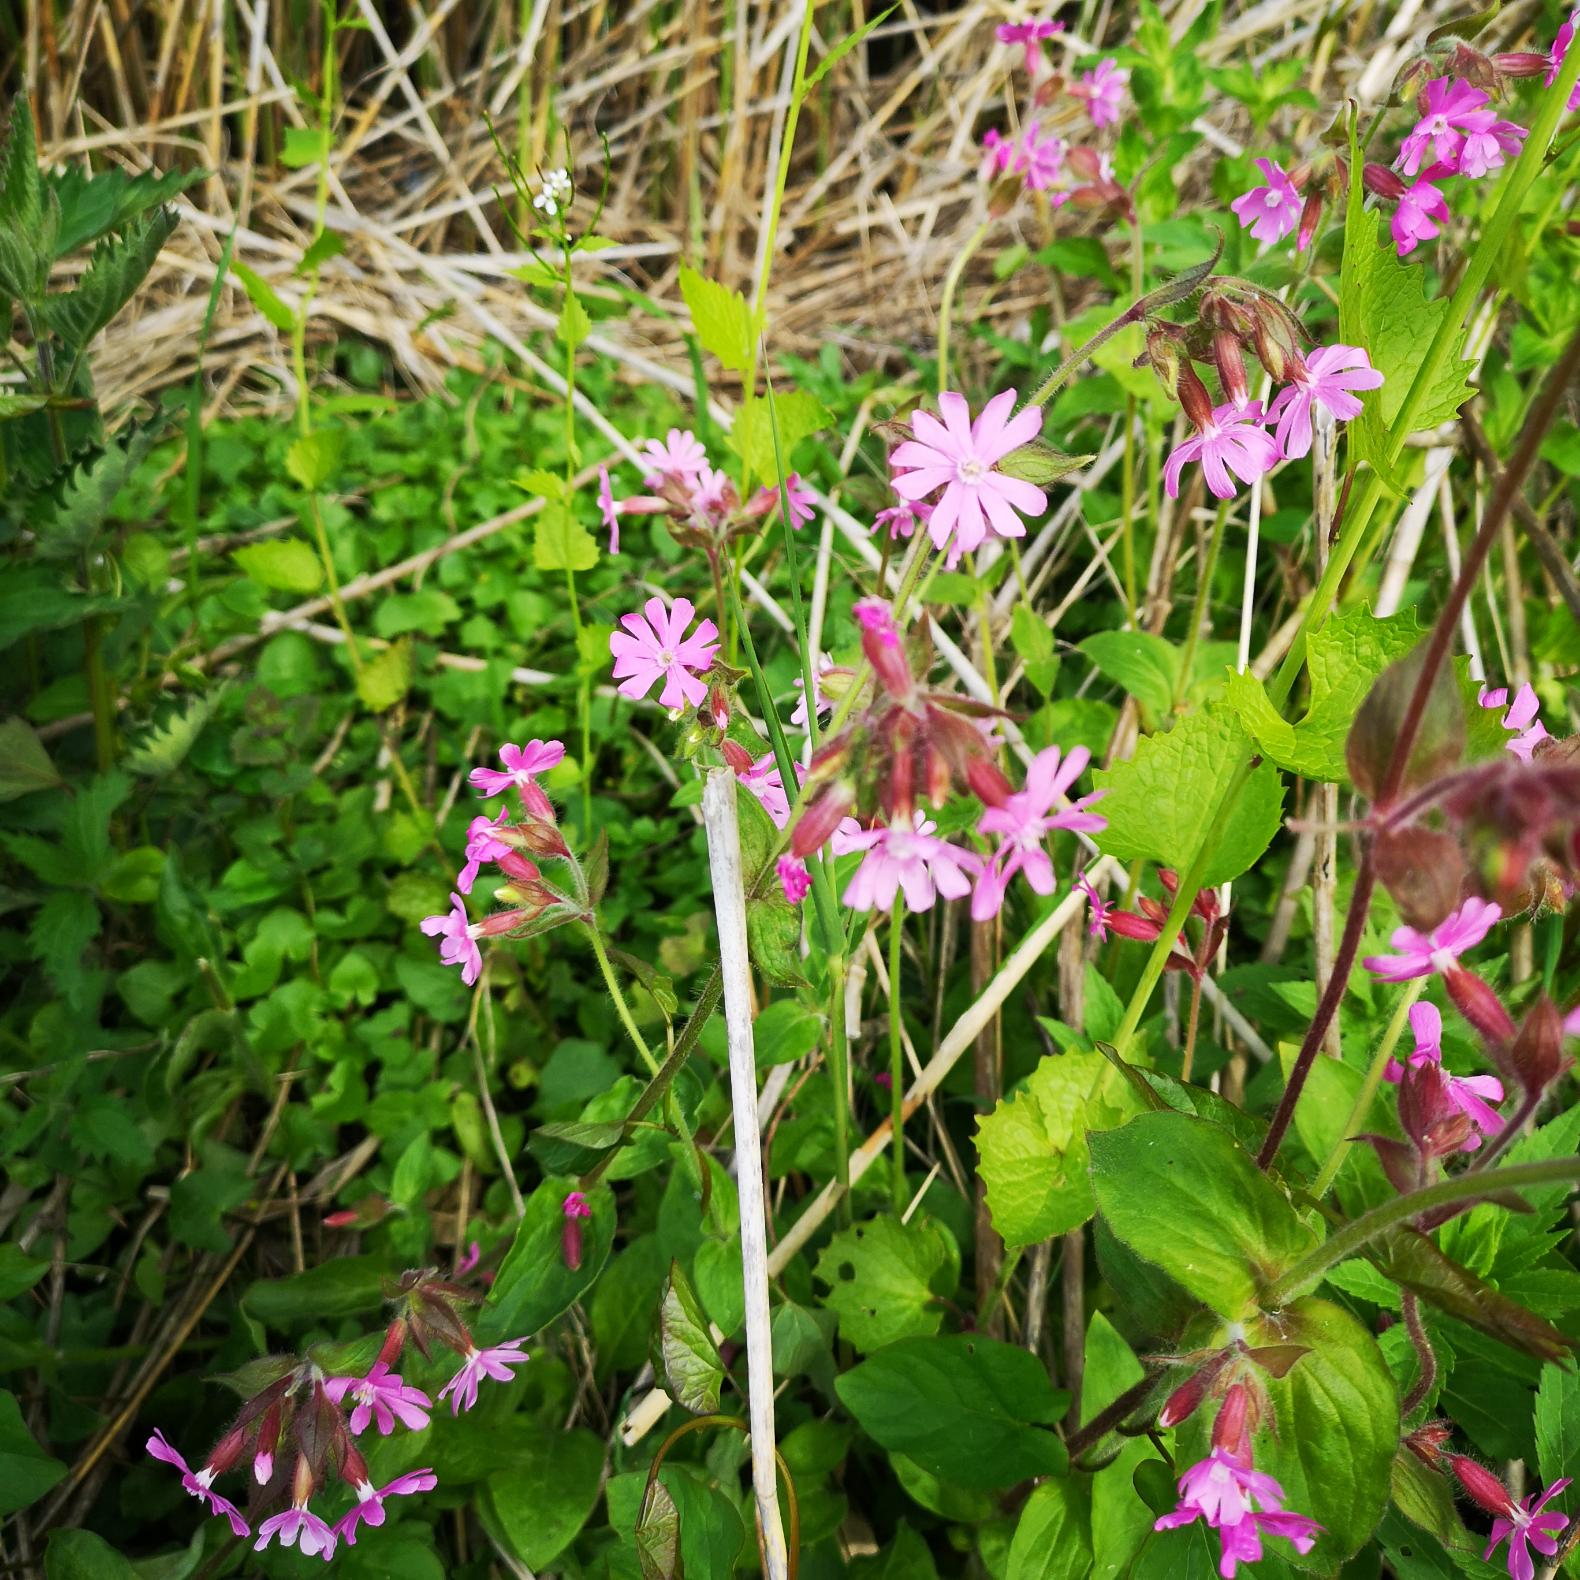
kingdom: Plantae
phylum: Tracheophyta
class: Magnoliopsida
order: Caryophyllales
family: Caryophyllaceae
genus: Silene
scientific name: Silene dioica
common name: Dagpragtstjerne
